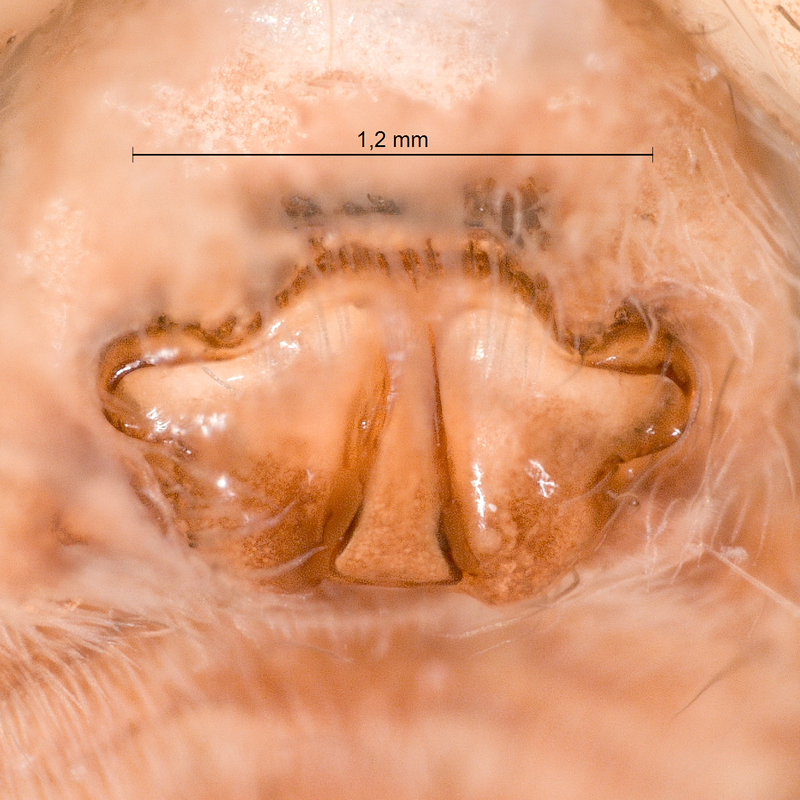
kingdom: Animalia
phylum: Arthropoda
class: Arachnida
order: Araneae
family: Lycosidae
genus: Pardosa
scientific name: Pardosa pullata
